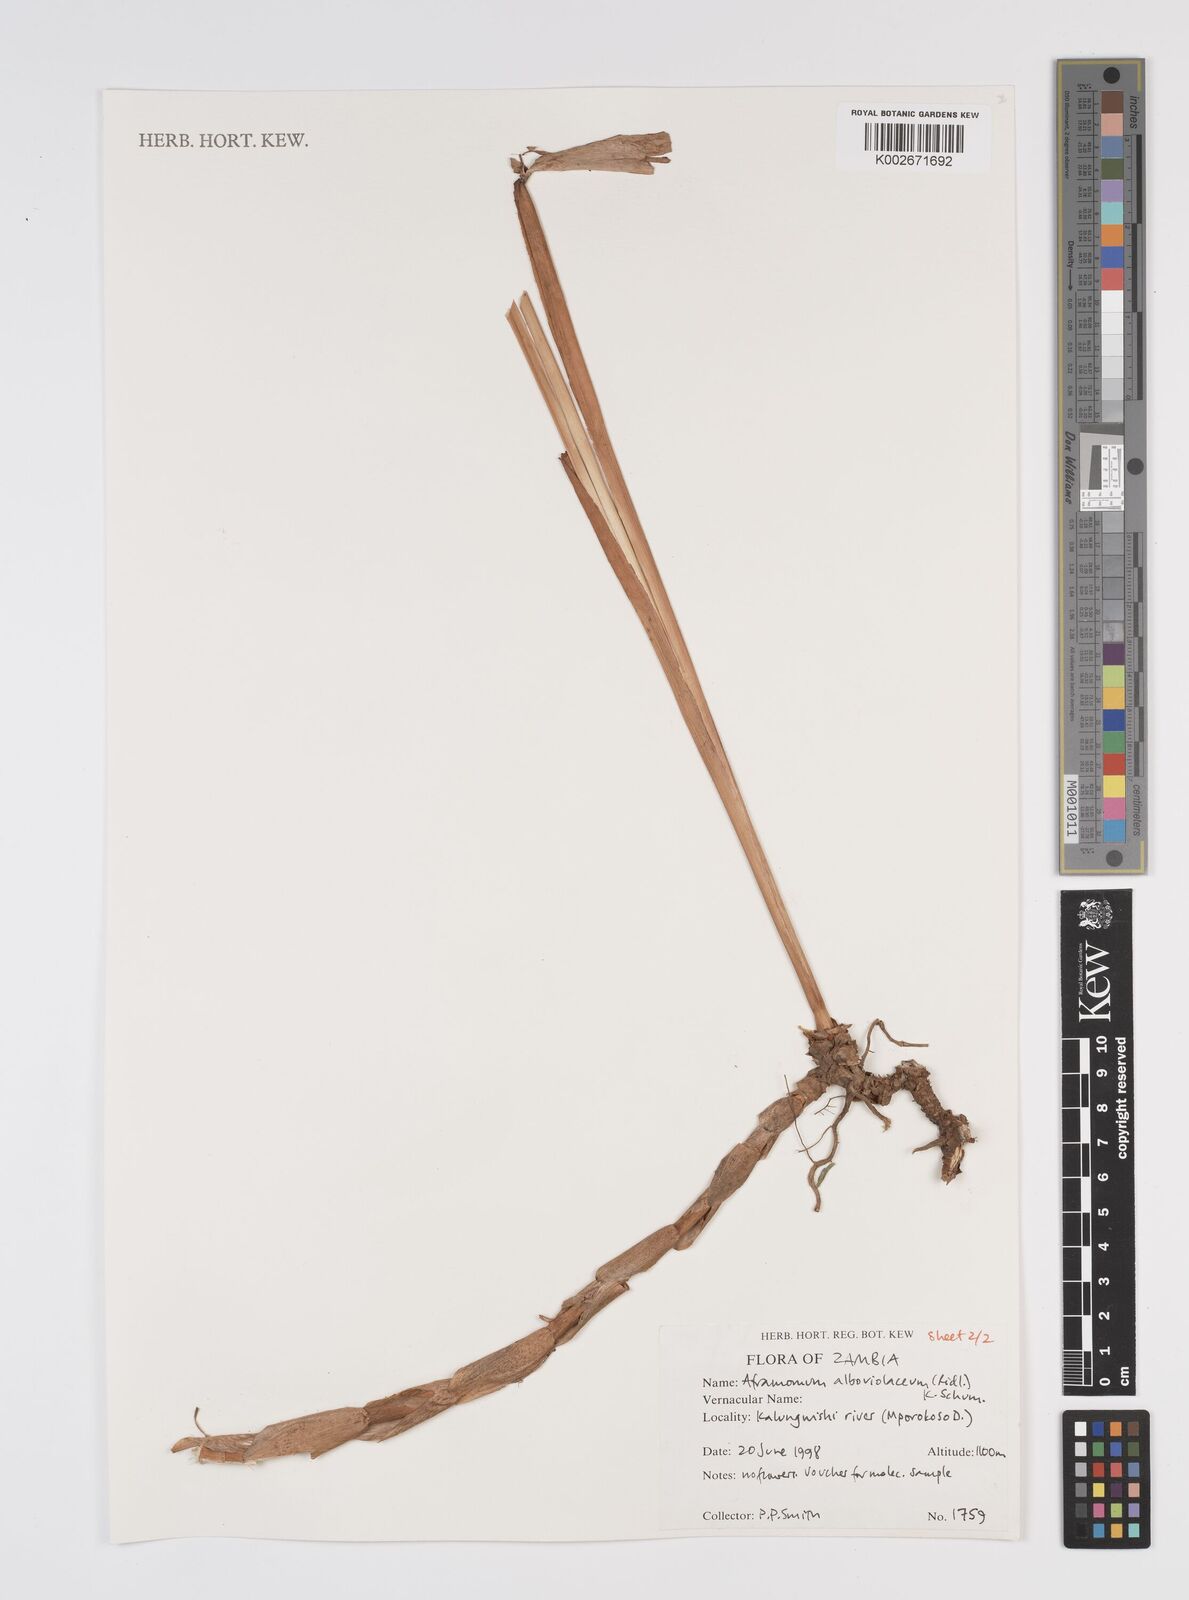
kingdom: Plantae
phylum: Tracheophyta
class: Liliopsida
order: Zingiberales
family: Zingiberaceae
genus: Aframomum
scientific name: Aframomum alboviolaceum
